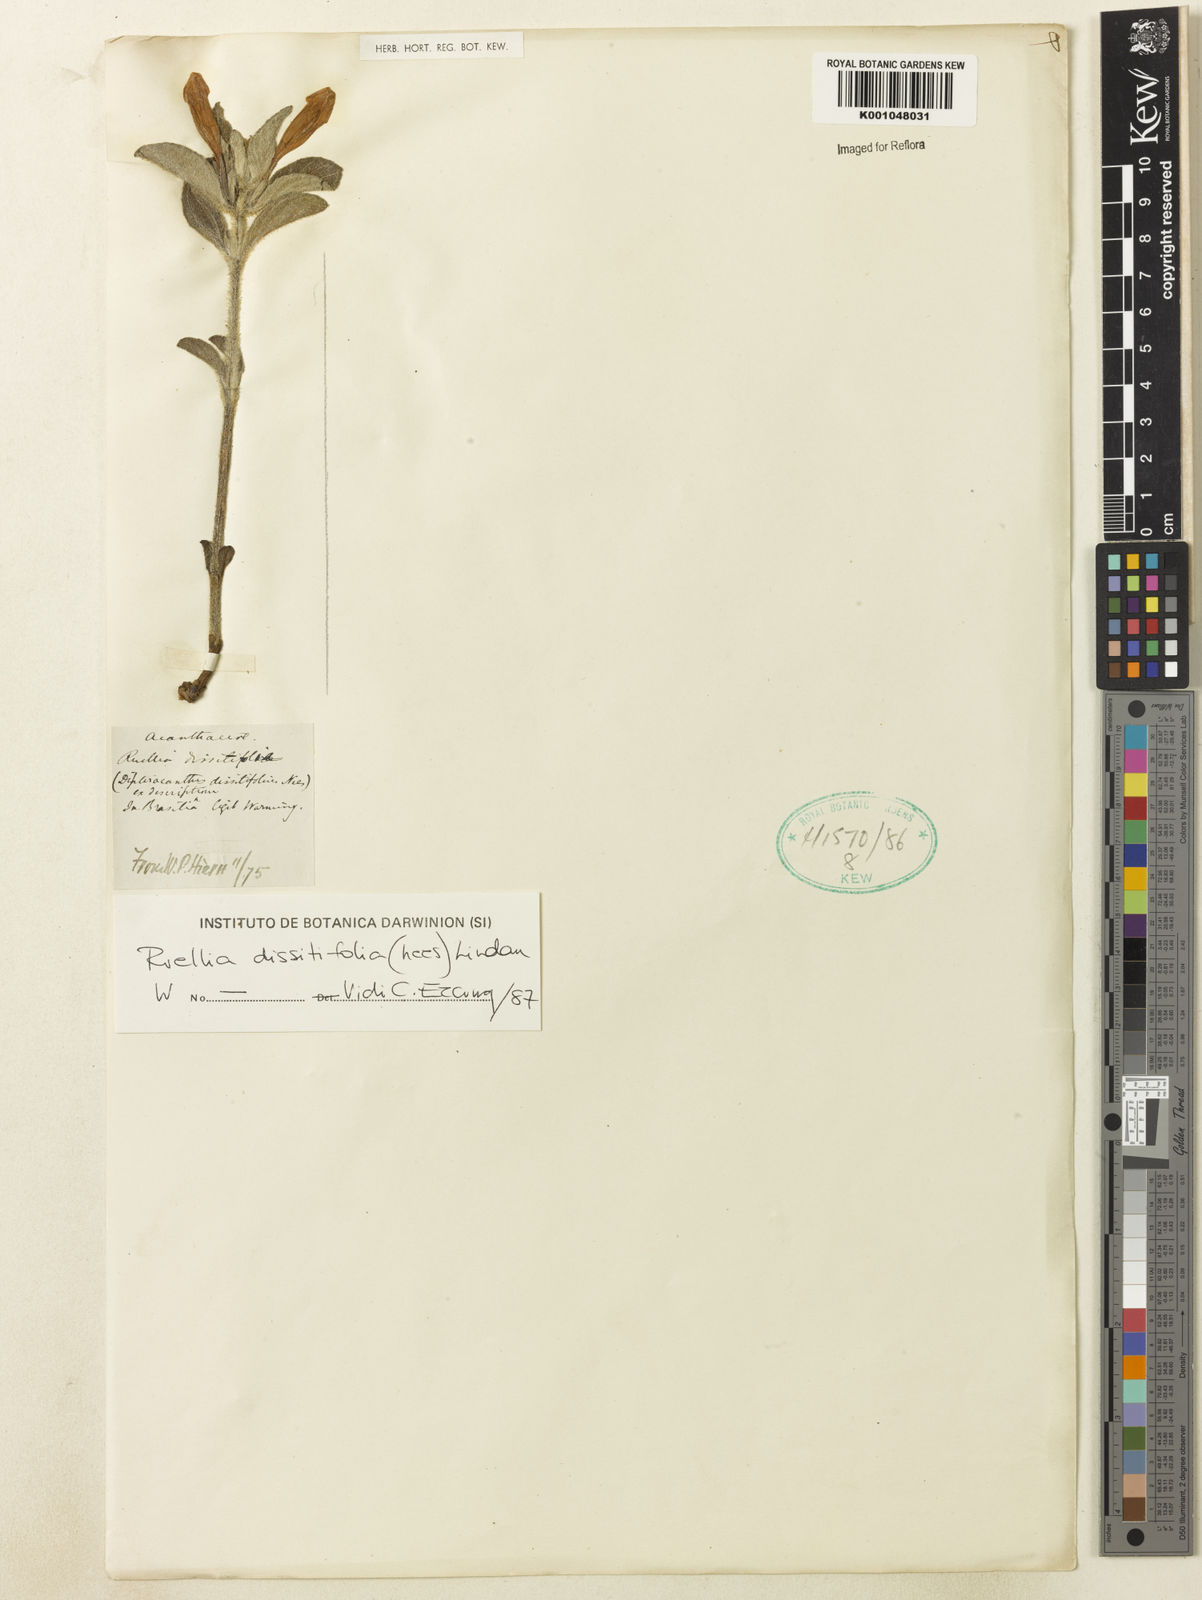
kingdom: Plantae
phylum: Tracheophyta
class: Magnoliopsida
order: Lamiales
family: Acanthaceae
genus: Ruellia
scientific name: Ruellia dissitifolia
